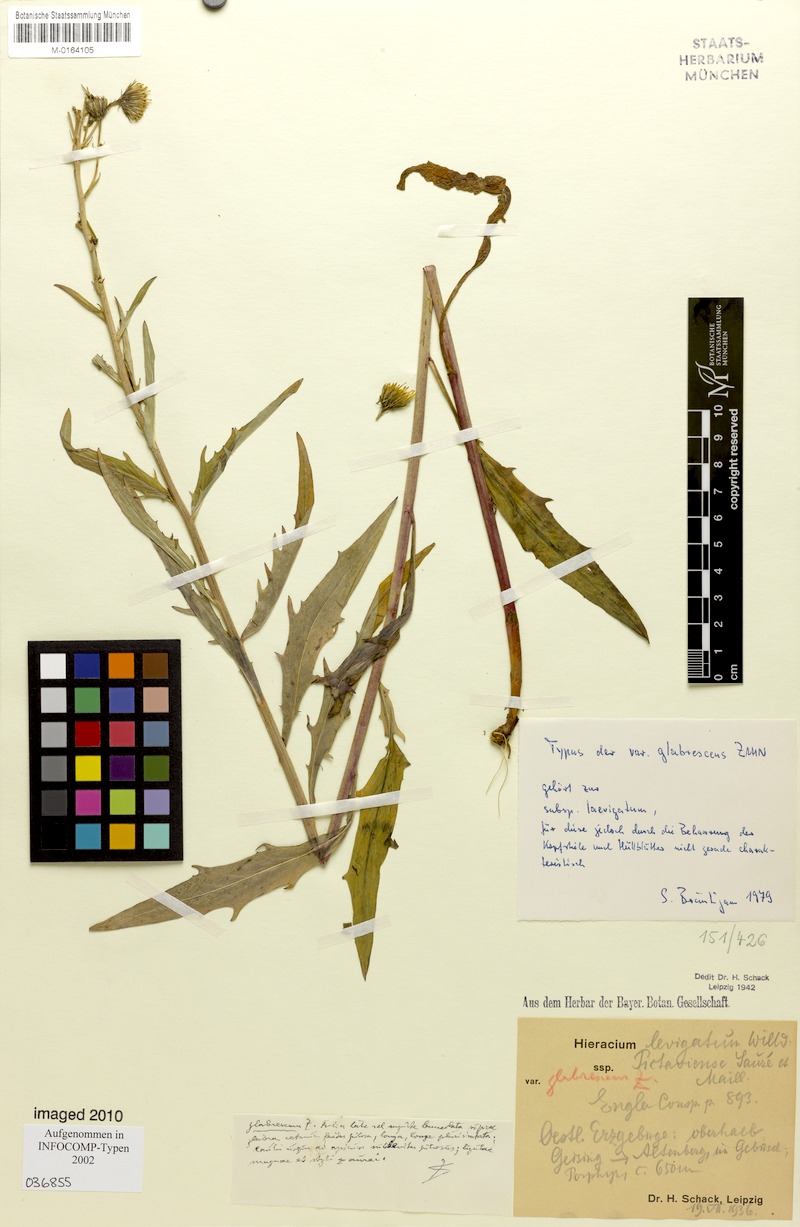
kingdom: Plantae
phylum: Tracheophyta
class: Magnoliopsida
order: Asterales
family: Asteraceae
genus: Hieracium
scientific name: Hieracium laevigatum
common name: Smooth hawkweed
